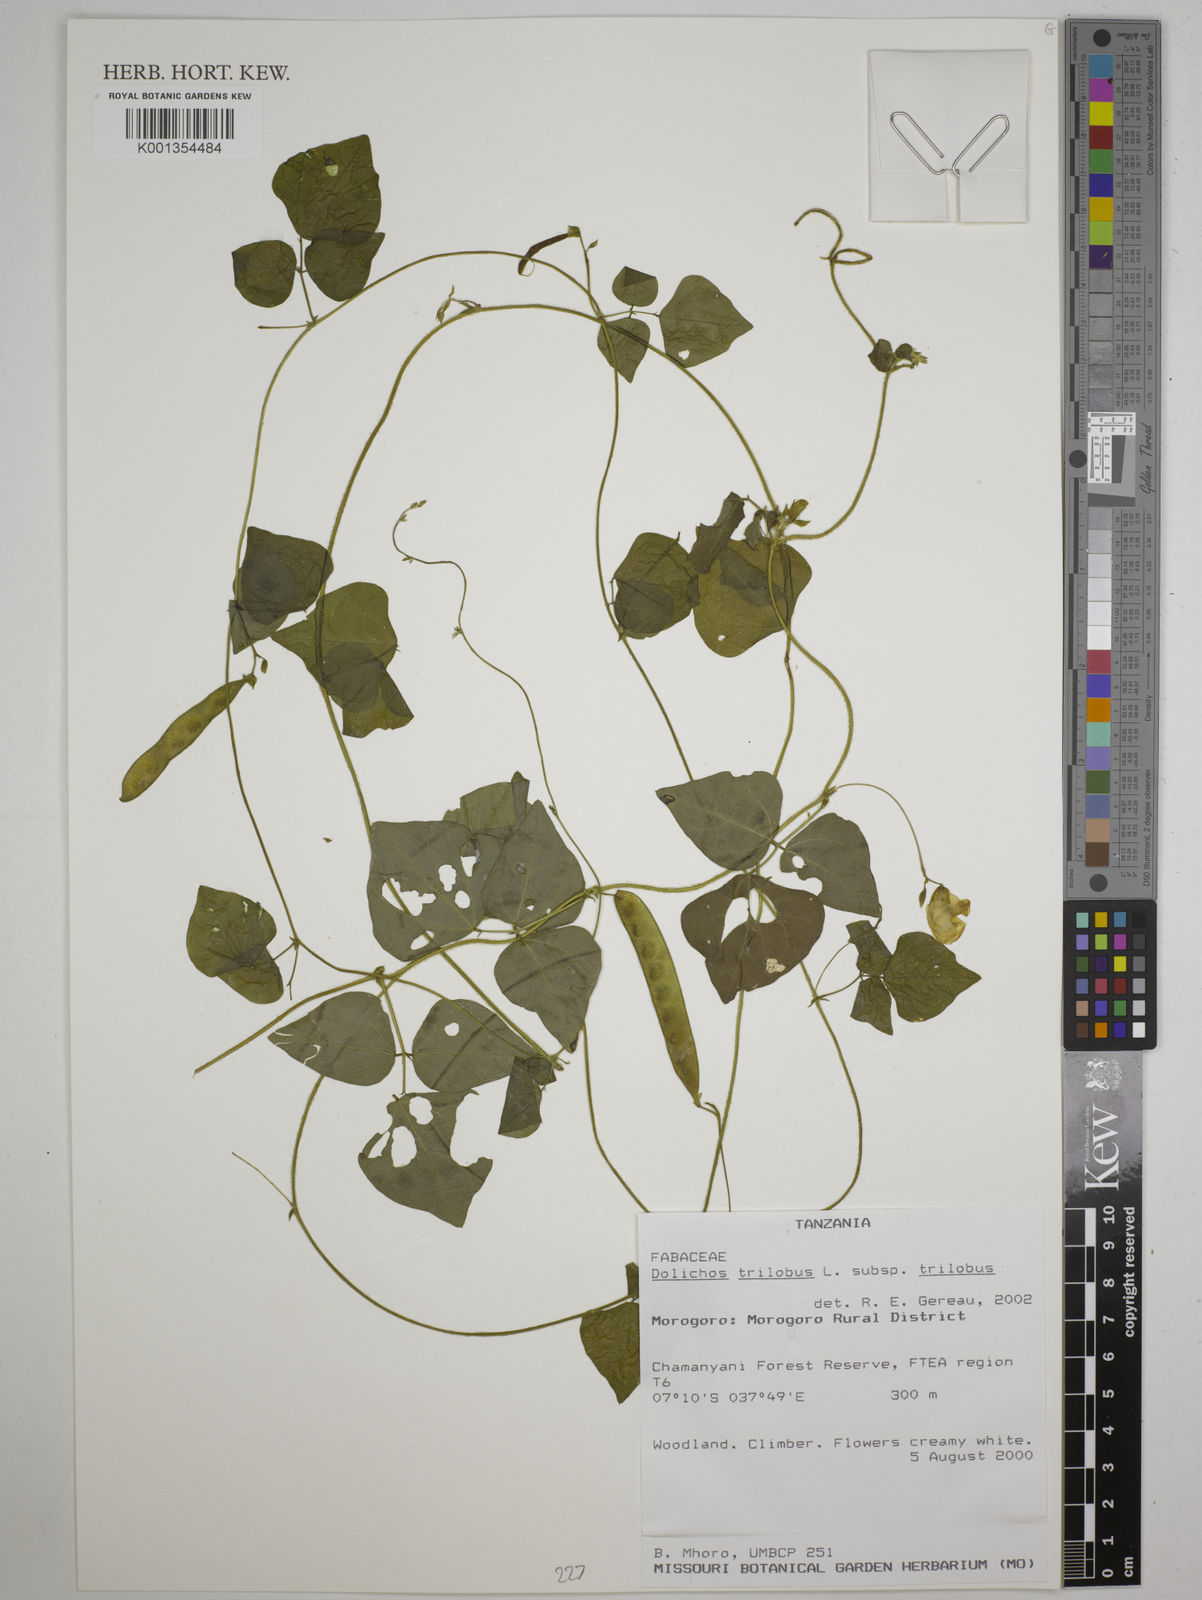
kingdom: Plantae
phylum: Tracheophyta
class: Magnoliopsida
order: Fabales
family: Fabaceae
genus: Dolichos
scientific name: Dolichos
